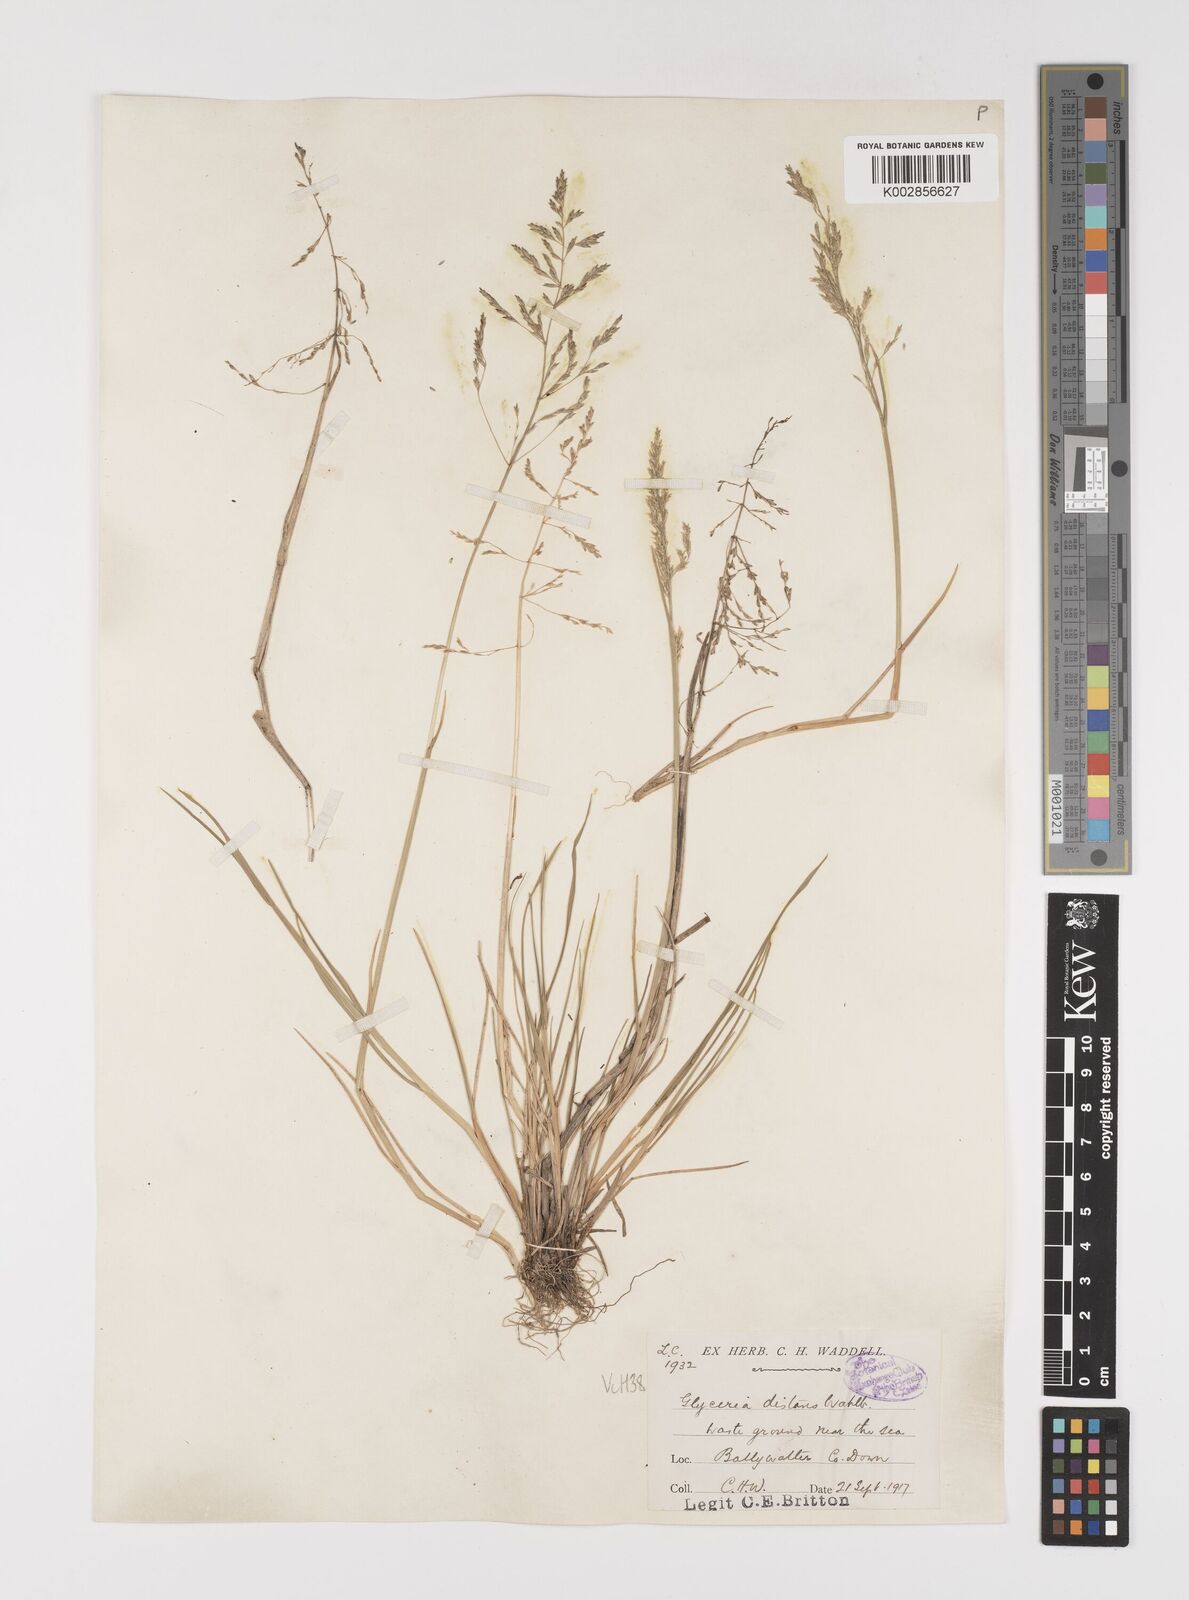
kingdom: Plantae
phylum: Tracheophyta
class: Liliopsida
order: Poales
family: Poaceae
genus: Puccinellia
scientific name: Puccinellia distans
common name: Weeping alkaligrass
